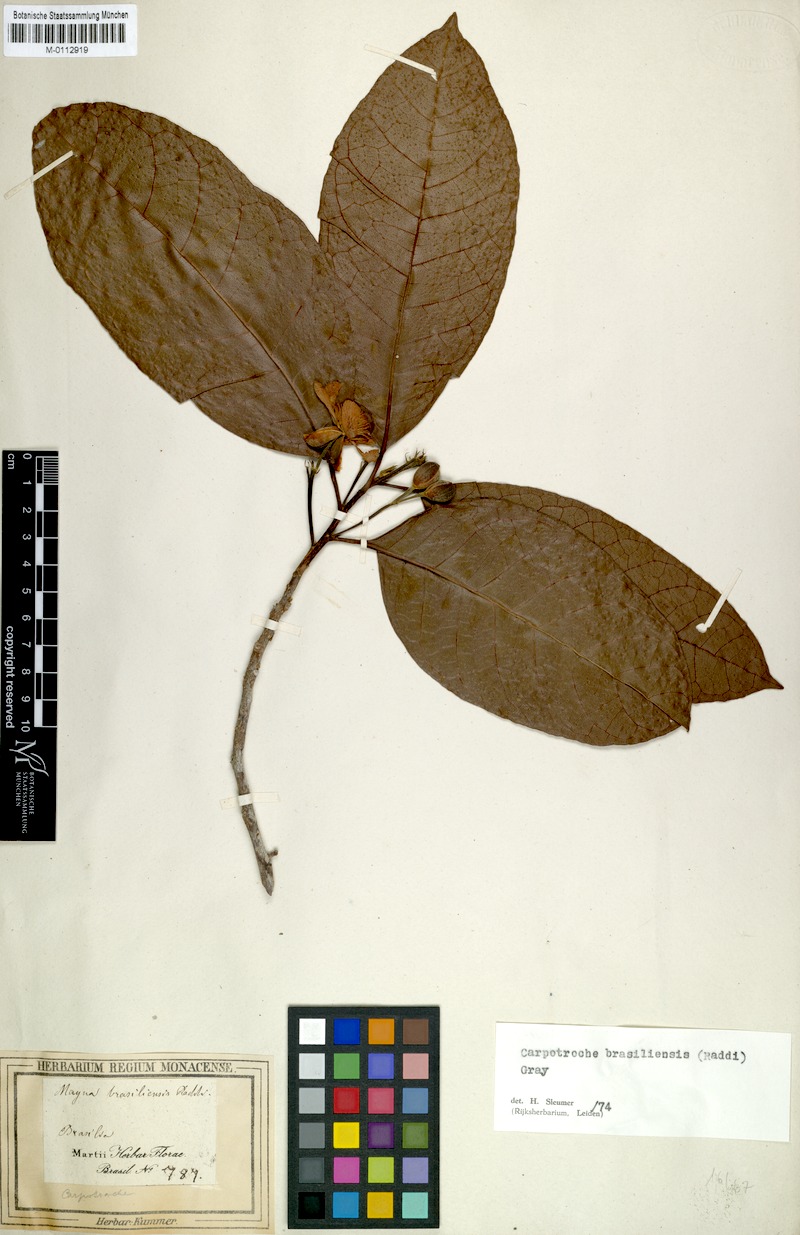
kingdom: Plantae
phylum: Tracheophyta
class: Magnoliopsida
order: Malpighiales
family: Achariaceae
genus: Carpotroche
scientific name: Carpotroche brasiliensis
